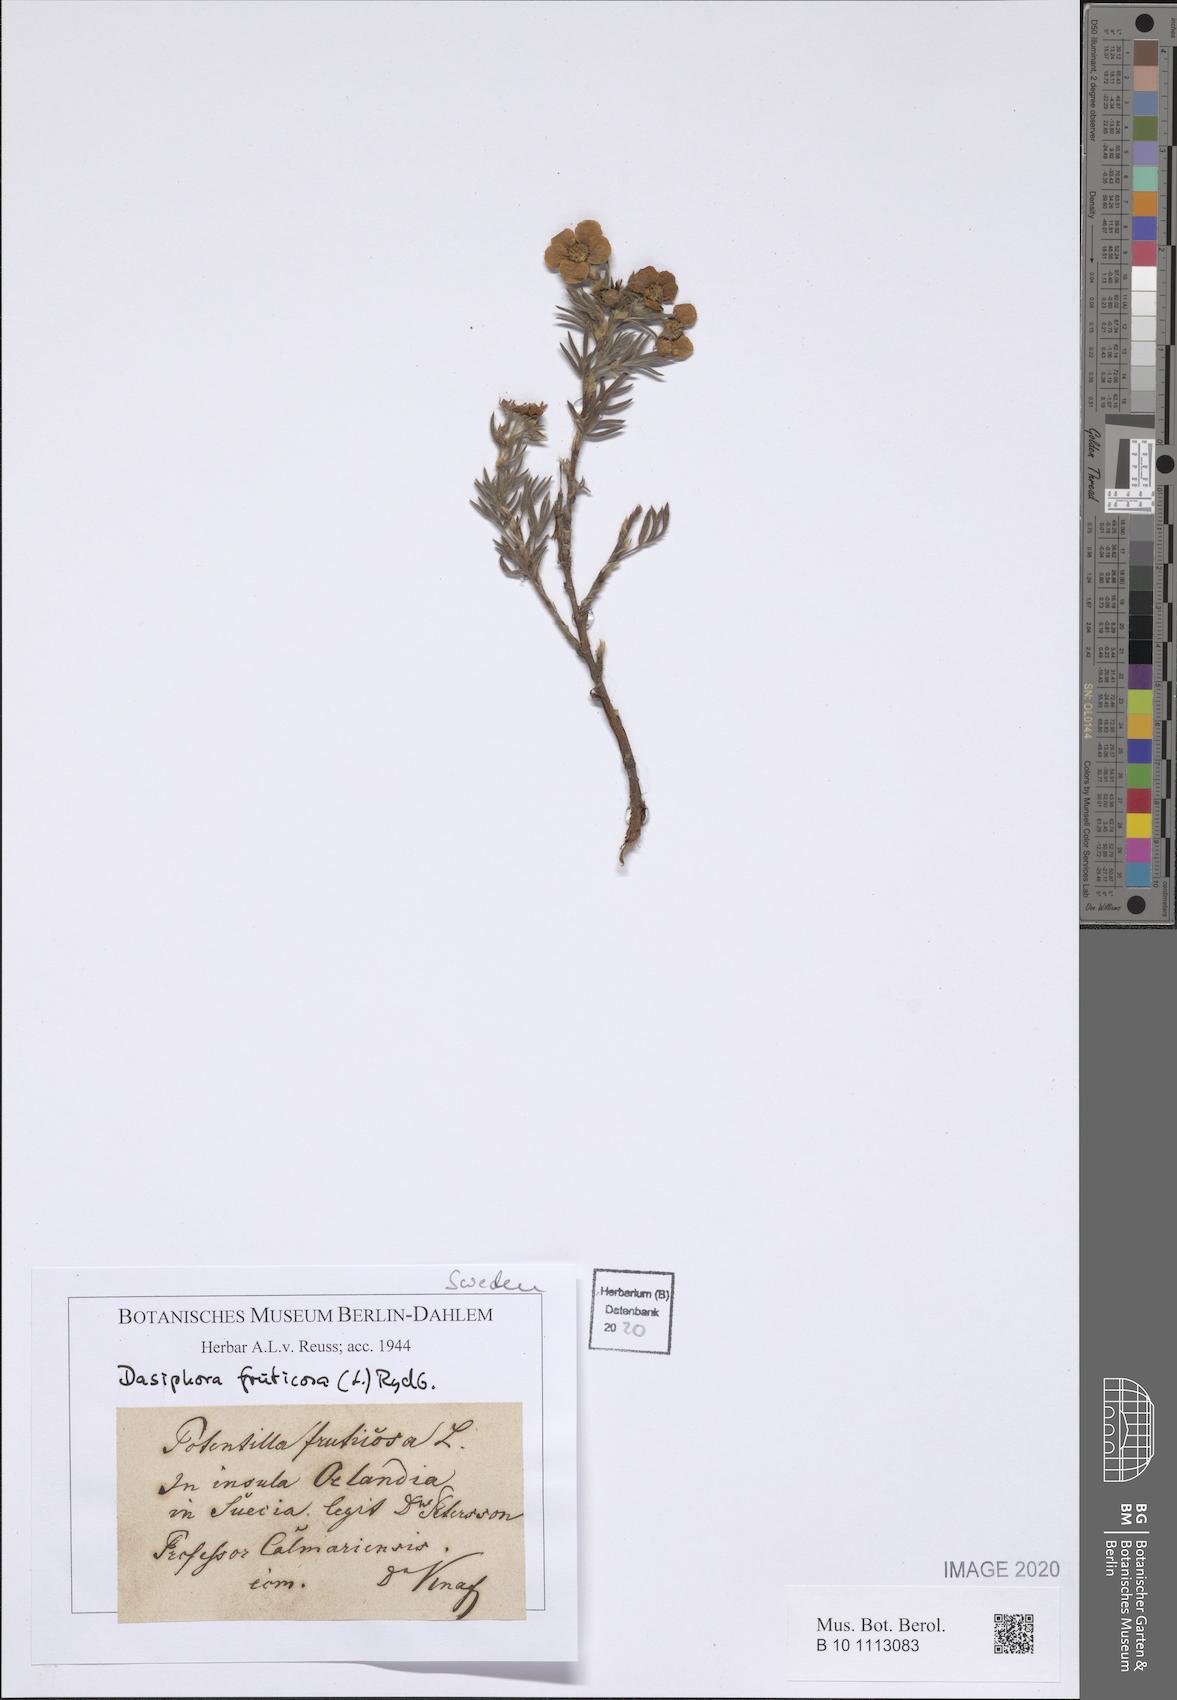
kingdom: Plantae
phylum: Tracheophyta
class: Magnoliopsida
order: Rosales
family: Rosaceae
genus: Dasiphora
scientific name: Dasiphora fruticosa
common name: Shrubby cinquefoil
